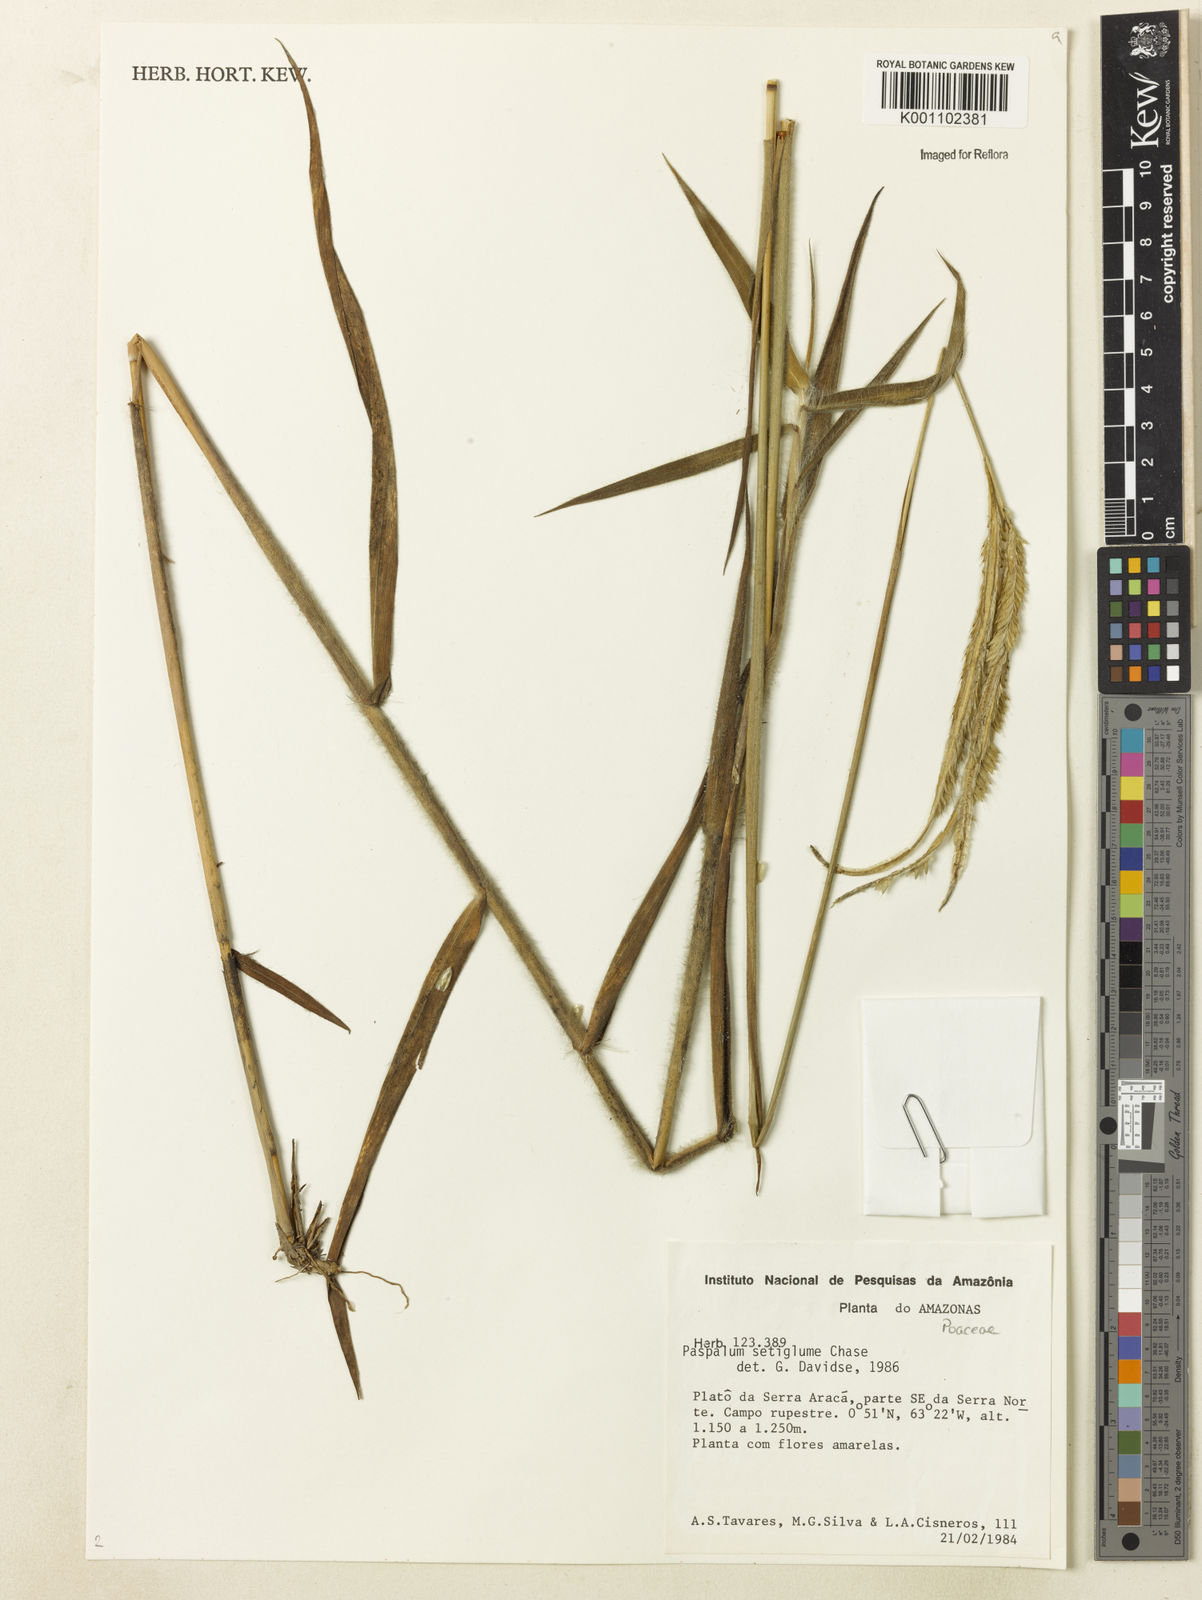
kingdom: Plantae
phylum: Tracheophyta
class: Liliopsida
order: Poales
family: Poaceae
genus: Paspalum
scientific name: Paspalum aspidiotes
